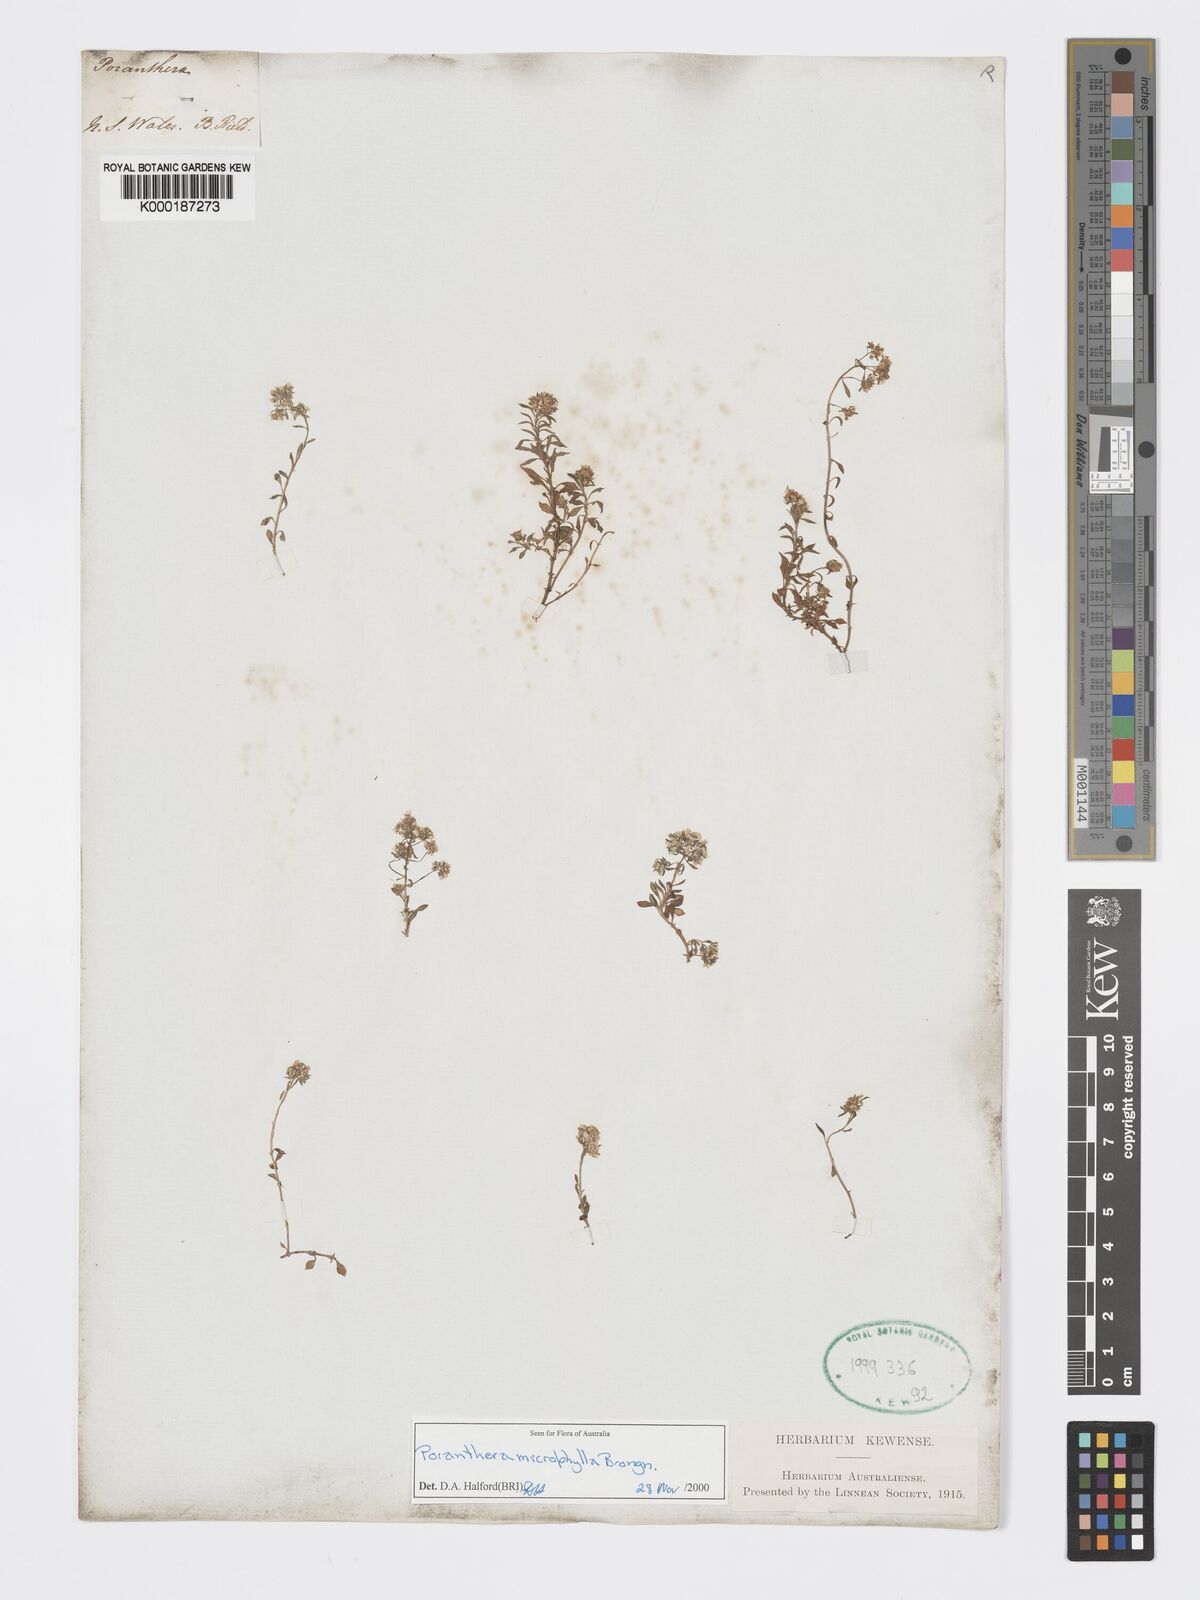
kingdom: Plantae
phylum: Tracheophyta
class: Magnoliopsida
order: Malpighiales
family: Phyllanthaceae
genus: Poranthera
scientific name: Poranthera microphylla
